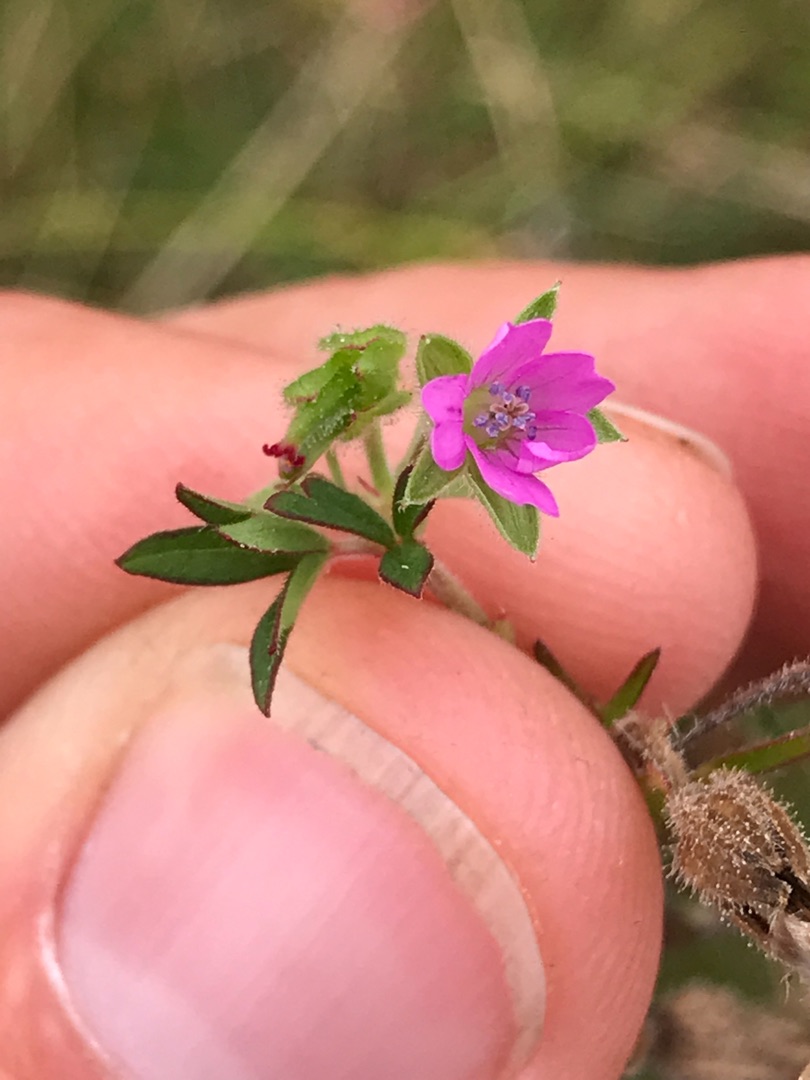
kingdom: Plantae
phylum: Tracheophyta
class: Magnoliopsida
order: Geraniales
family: Geraniaceae
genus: Geranium
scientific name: Geranium dissectum
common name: Kløftet storkenæb
